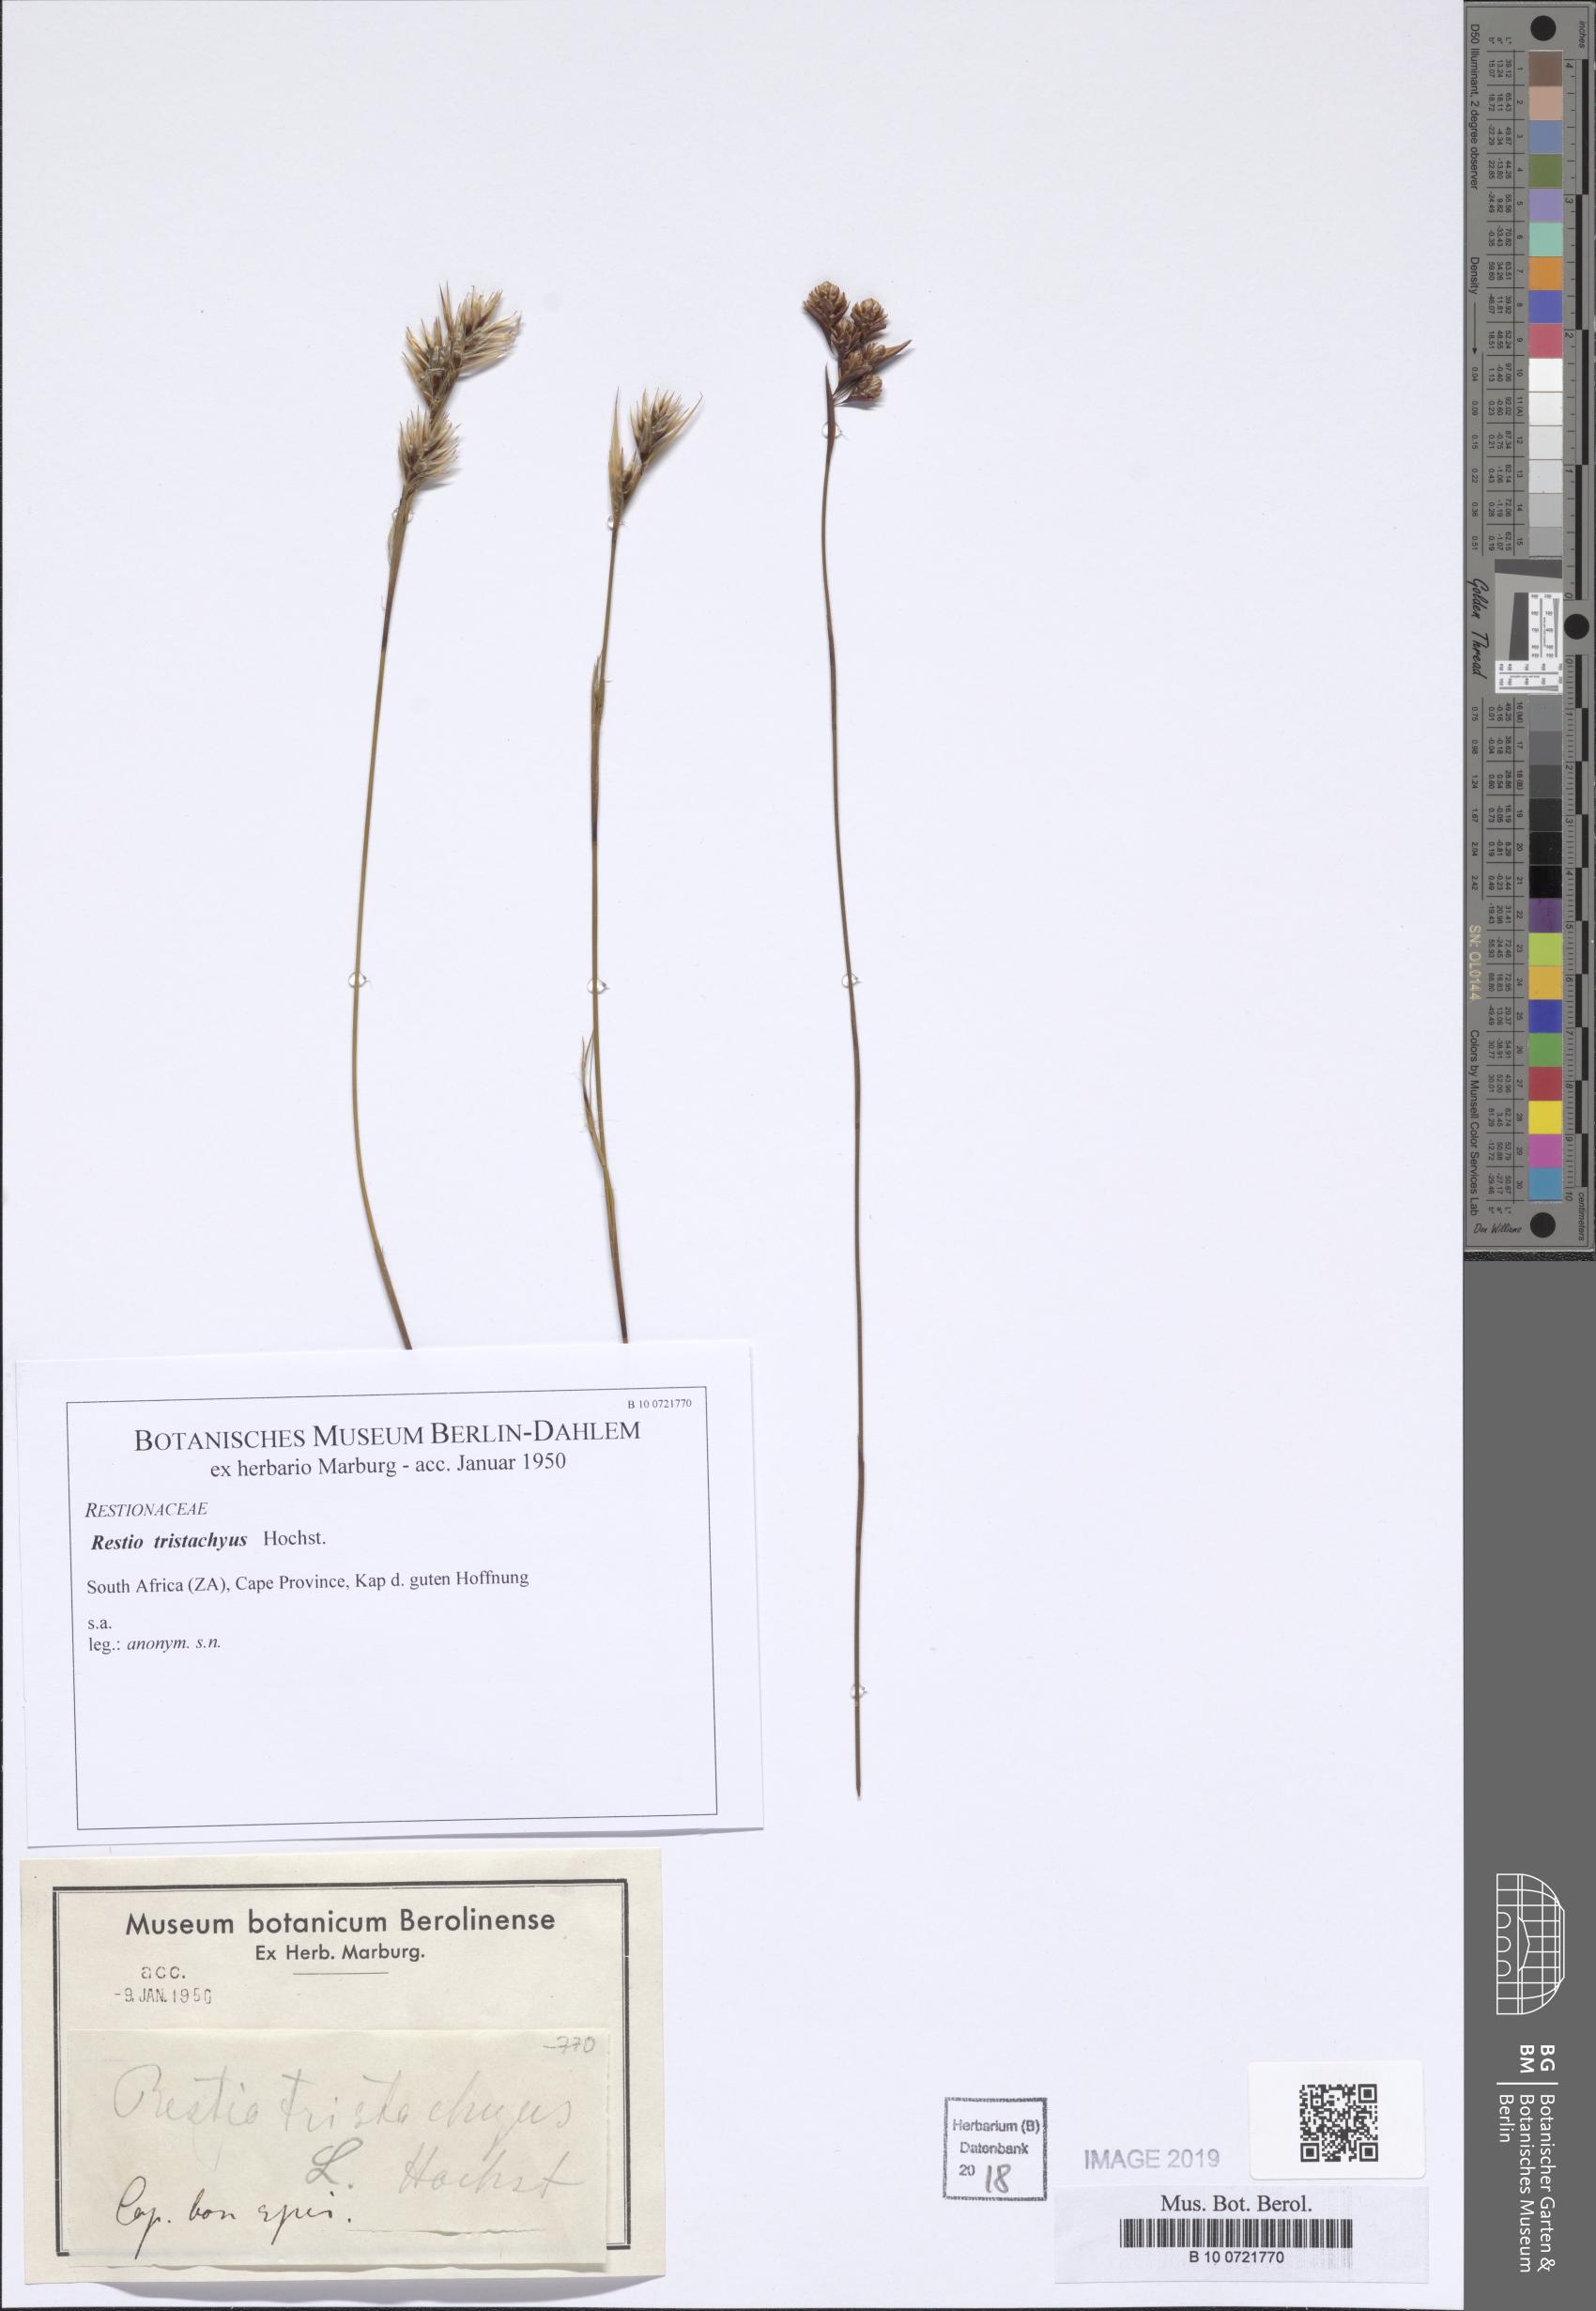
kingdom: Plantae
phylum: Tracheophyta
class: Liliopsida
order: Poales
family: Restionaceae
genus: Restio
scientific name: Restio
